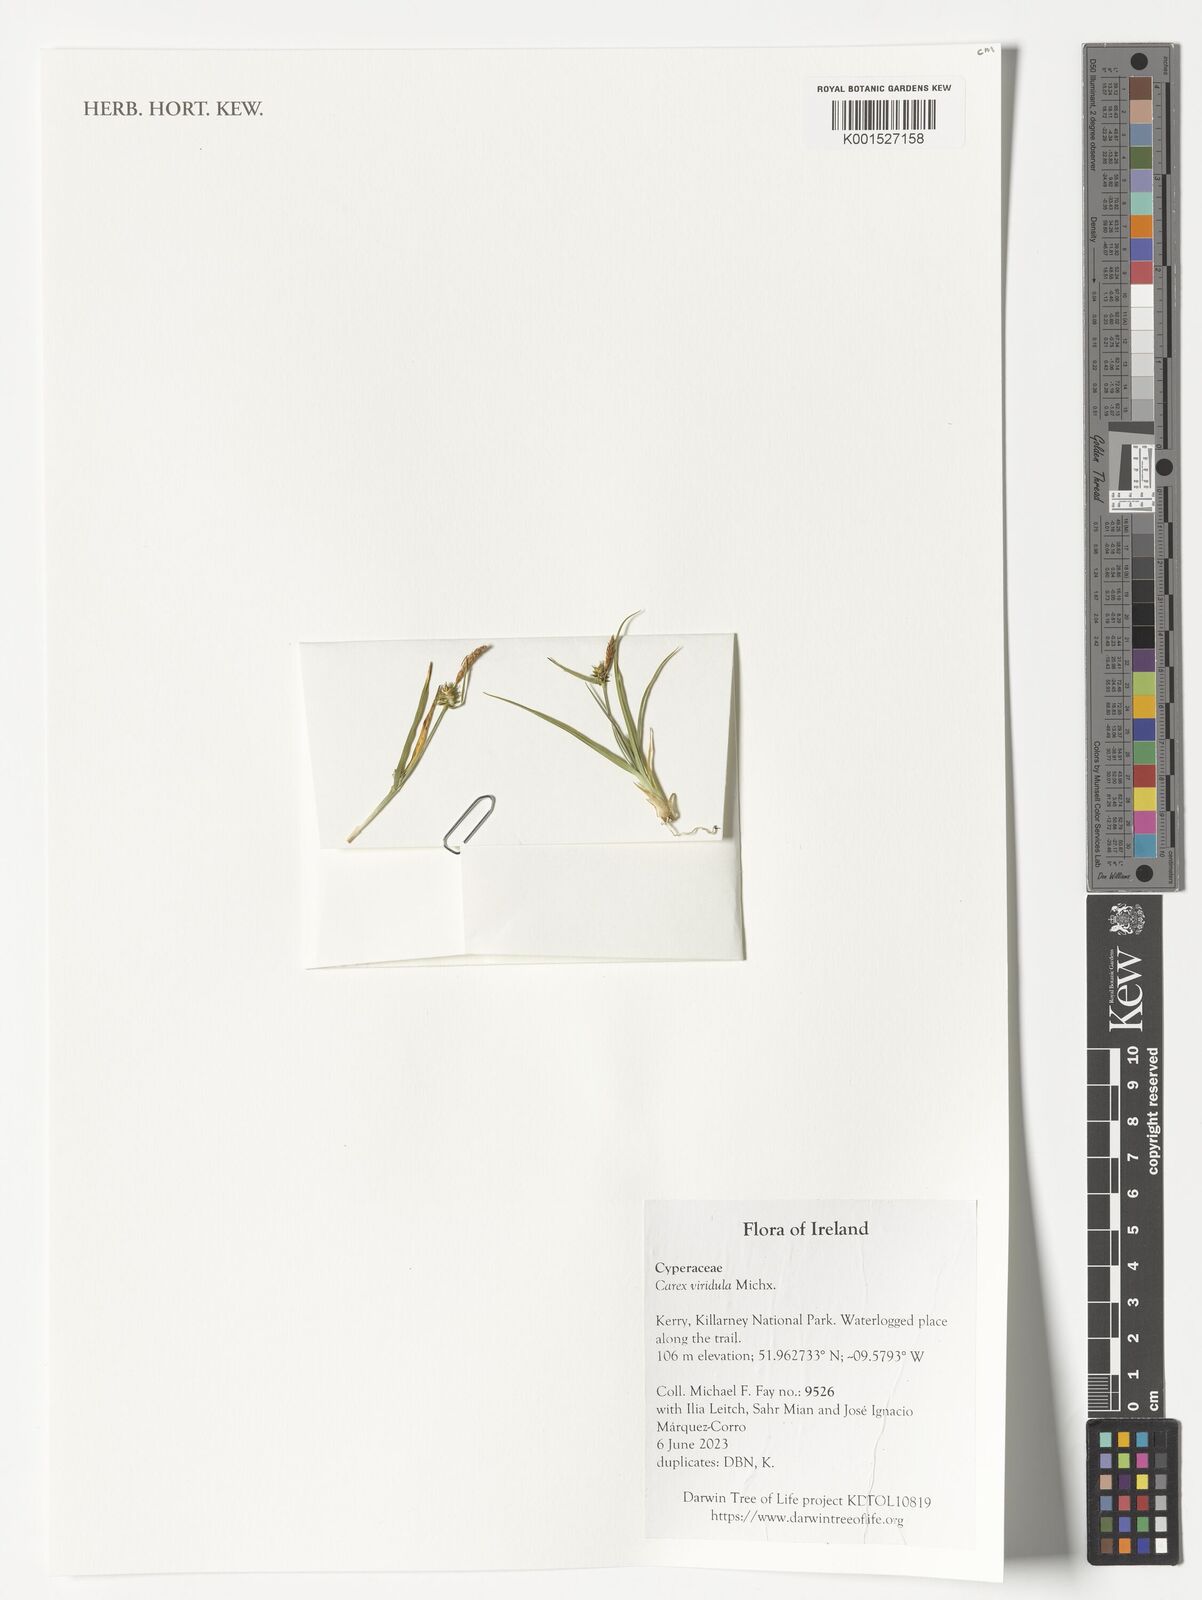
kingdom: Plantae
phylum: Tracheophyta
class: Liliopsida
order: Poales
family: Cyperaceae
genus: Carex
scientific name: Carex oederi
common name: Common & small-fruited yellow-sedge
